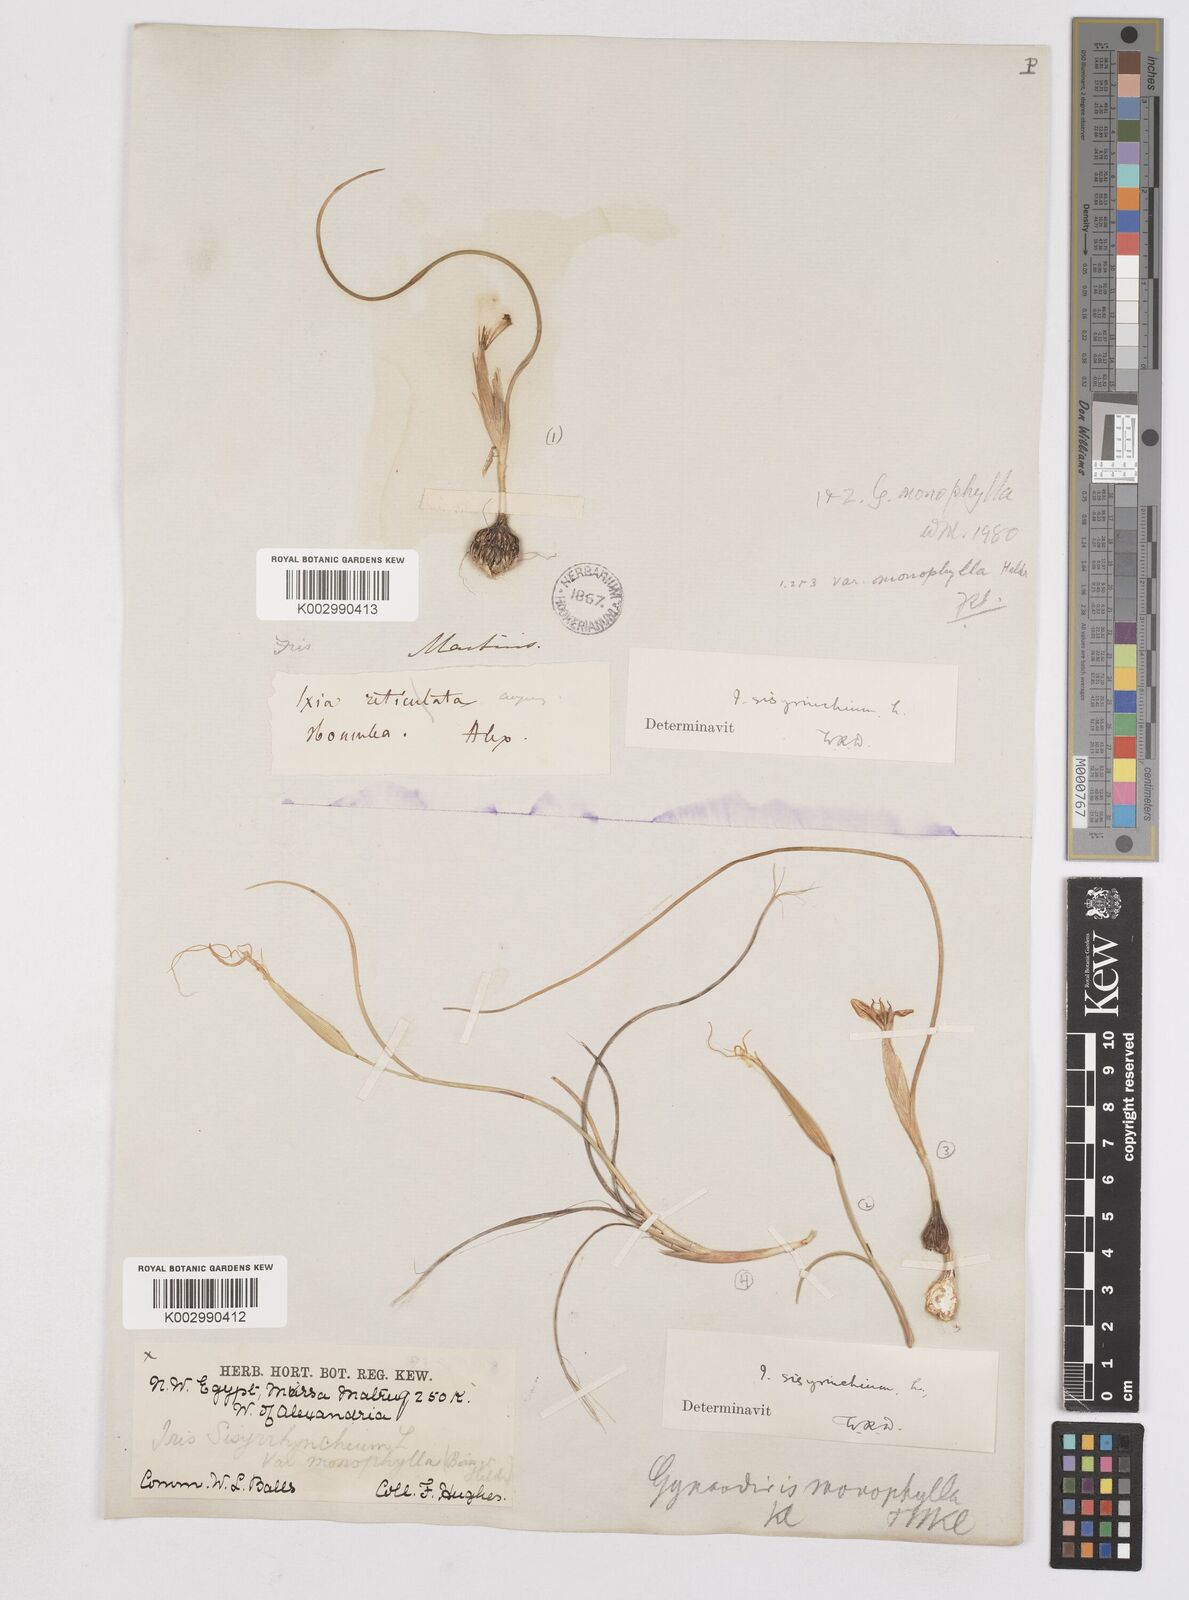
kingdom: Plantae
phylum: Tracheophyta
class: Liliopsida
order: Asparagales
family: Iridaceae
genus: Moraea
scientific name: Moraea
